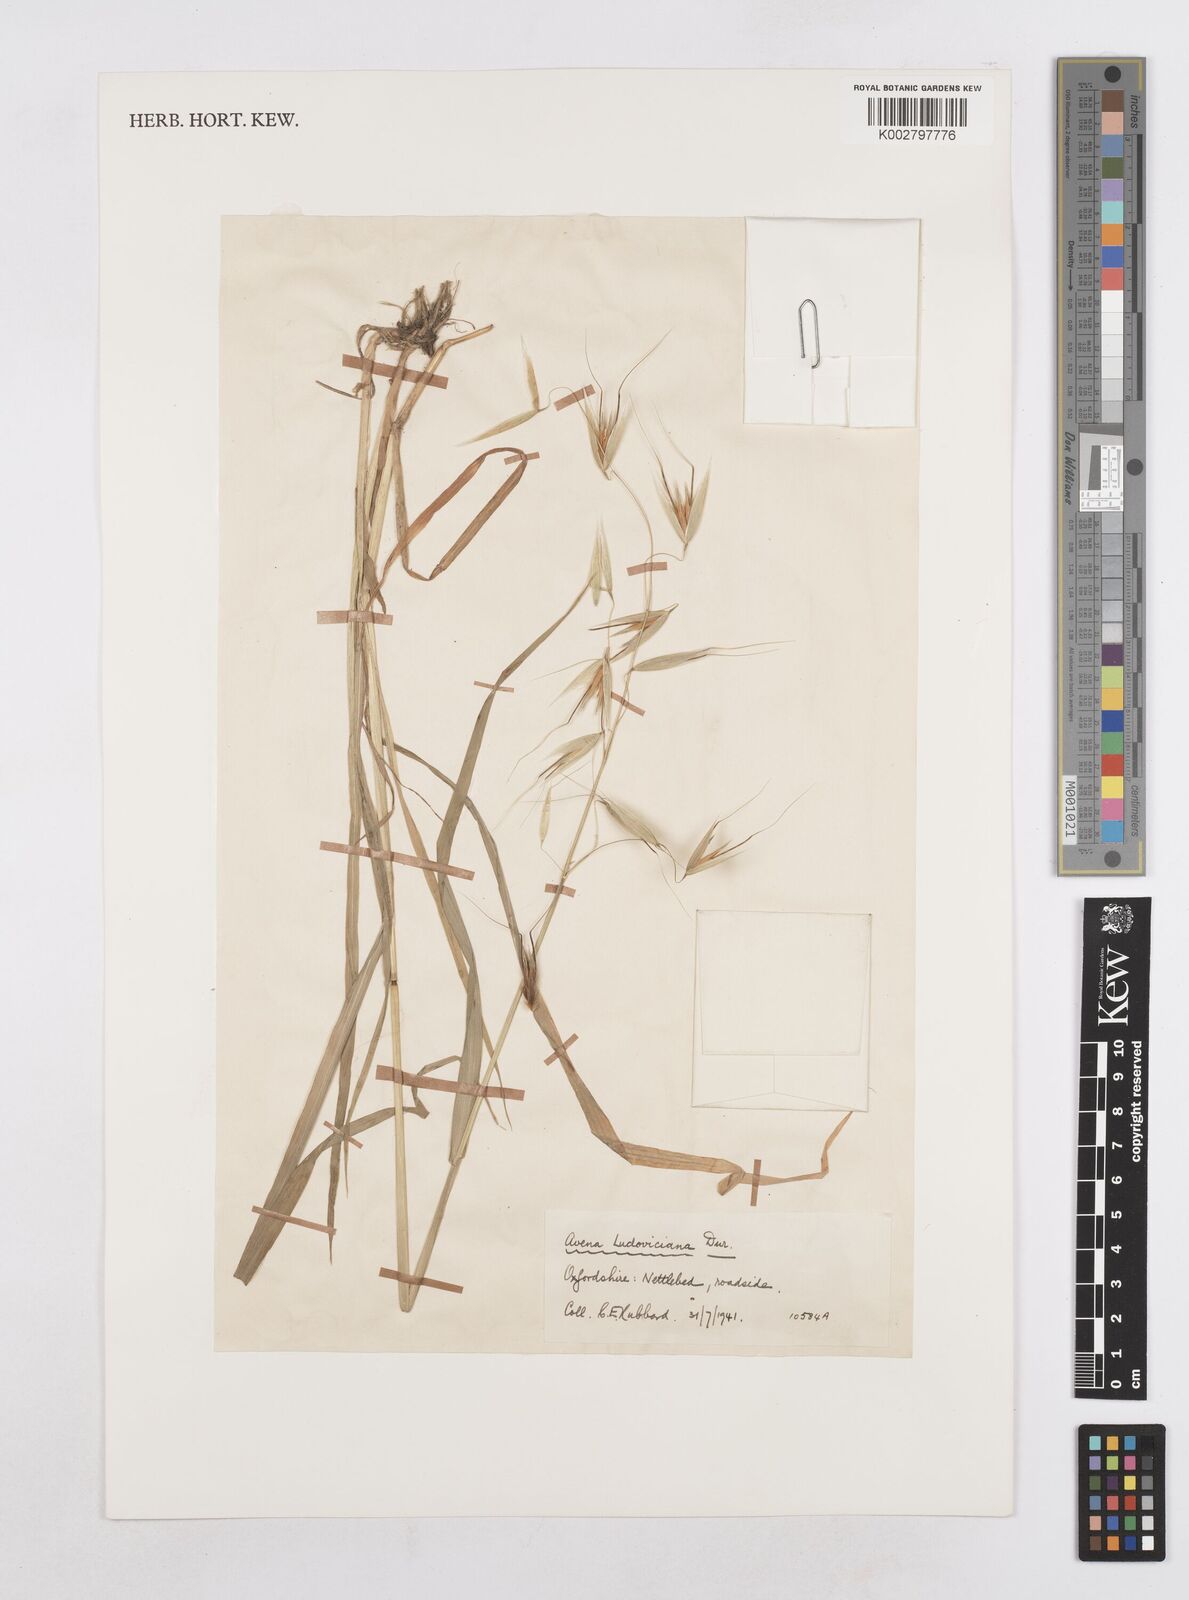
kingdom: Plantae
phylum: Tracheophyta
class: Liliopsida
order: Poales
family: Poaceae
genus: Avena
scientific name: Avena sterilis
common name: Animated oat
